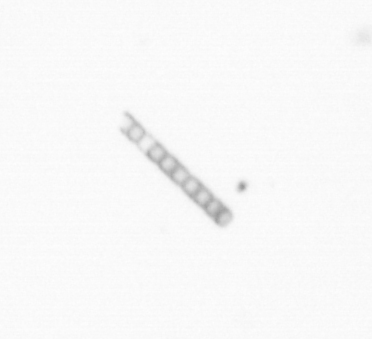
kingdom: Chromista
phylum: Ochrophyta
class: Bacillariophyceae
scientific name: Bacillariophyceae
